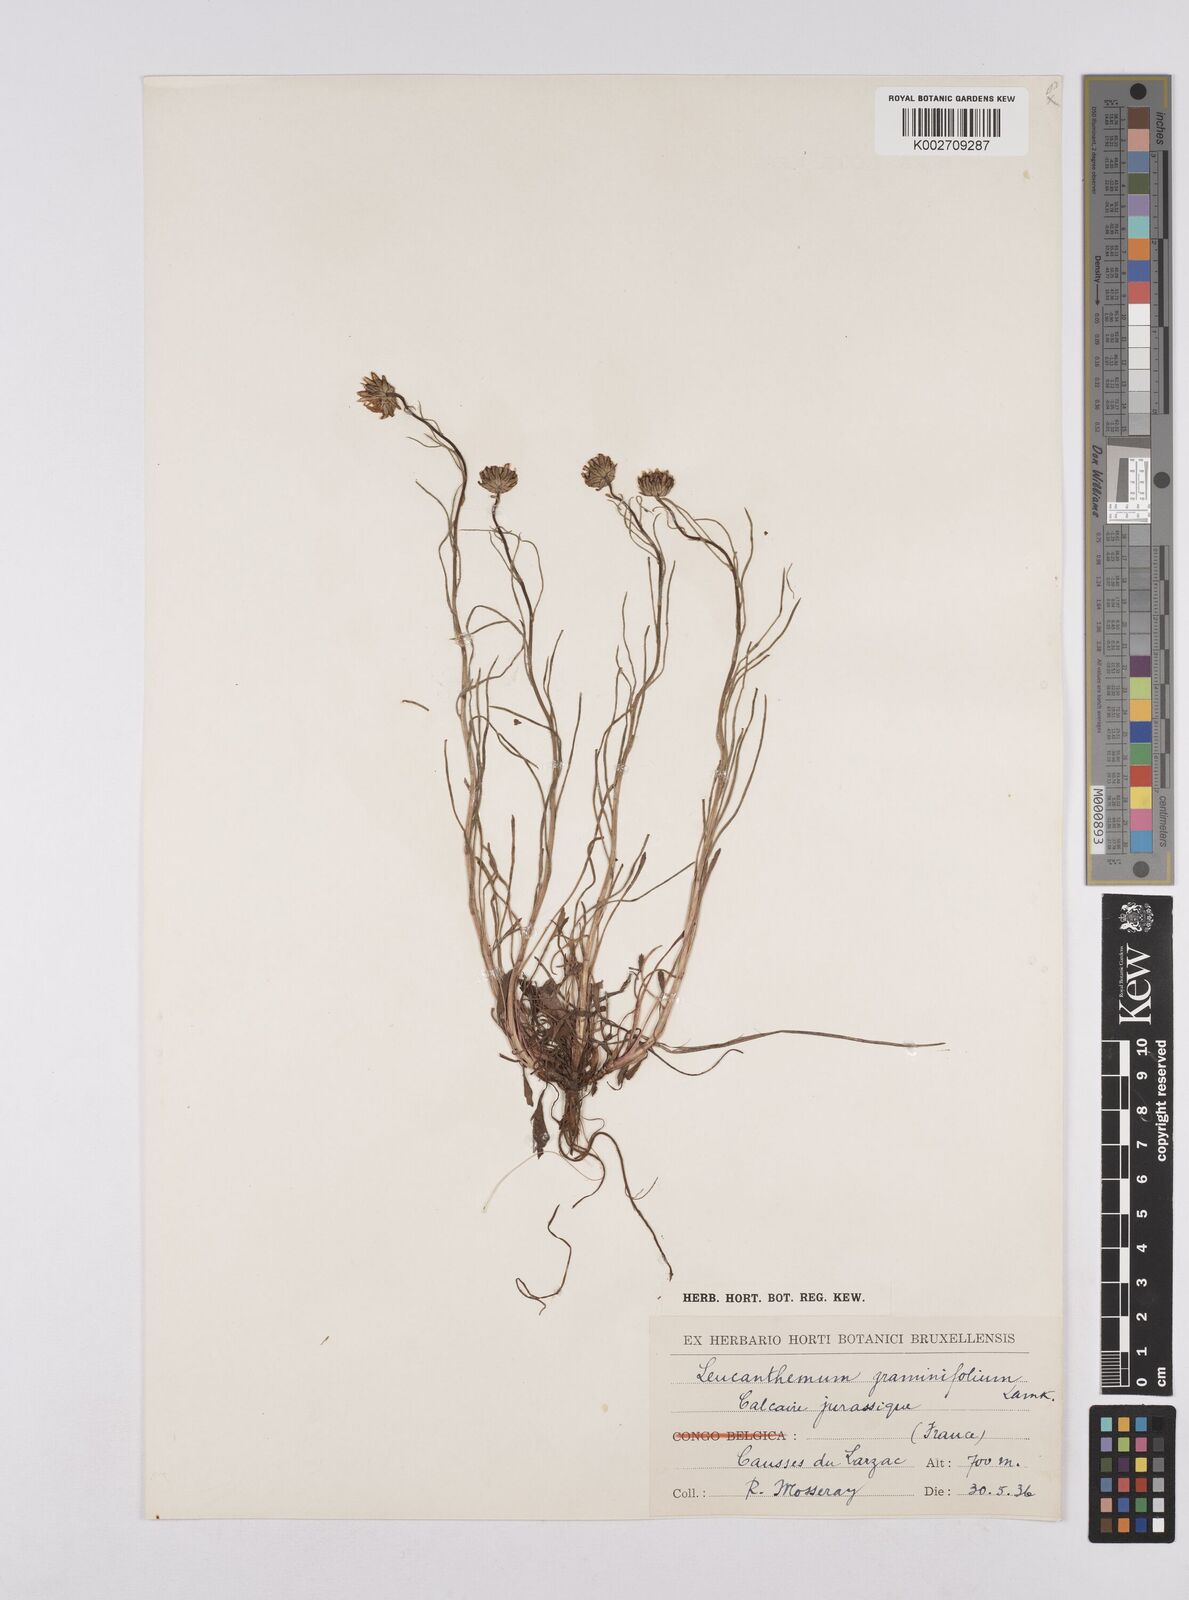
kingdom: Plantae
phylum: Tracheophyta
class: Magnoliopsida
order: Asterales
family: Asteraceae
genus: Leucanthemum
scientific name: Leucanthemum chloroticum
